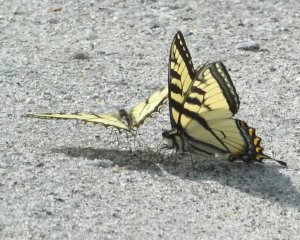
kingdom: Animalia
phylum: Arthropoda
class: Insecta
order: Lepidoptera
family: Papilionidae
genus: Pterourus
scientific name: Pterourus canadensis
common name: Canadian Tiger Swallowtail
